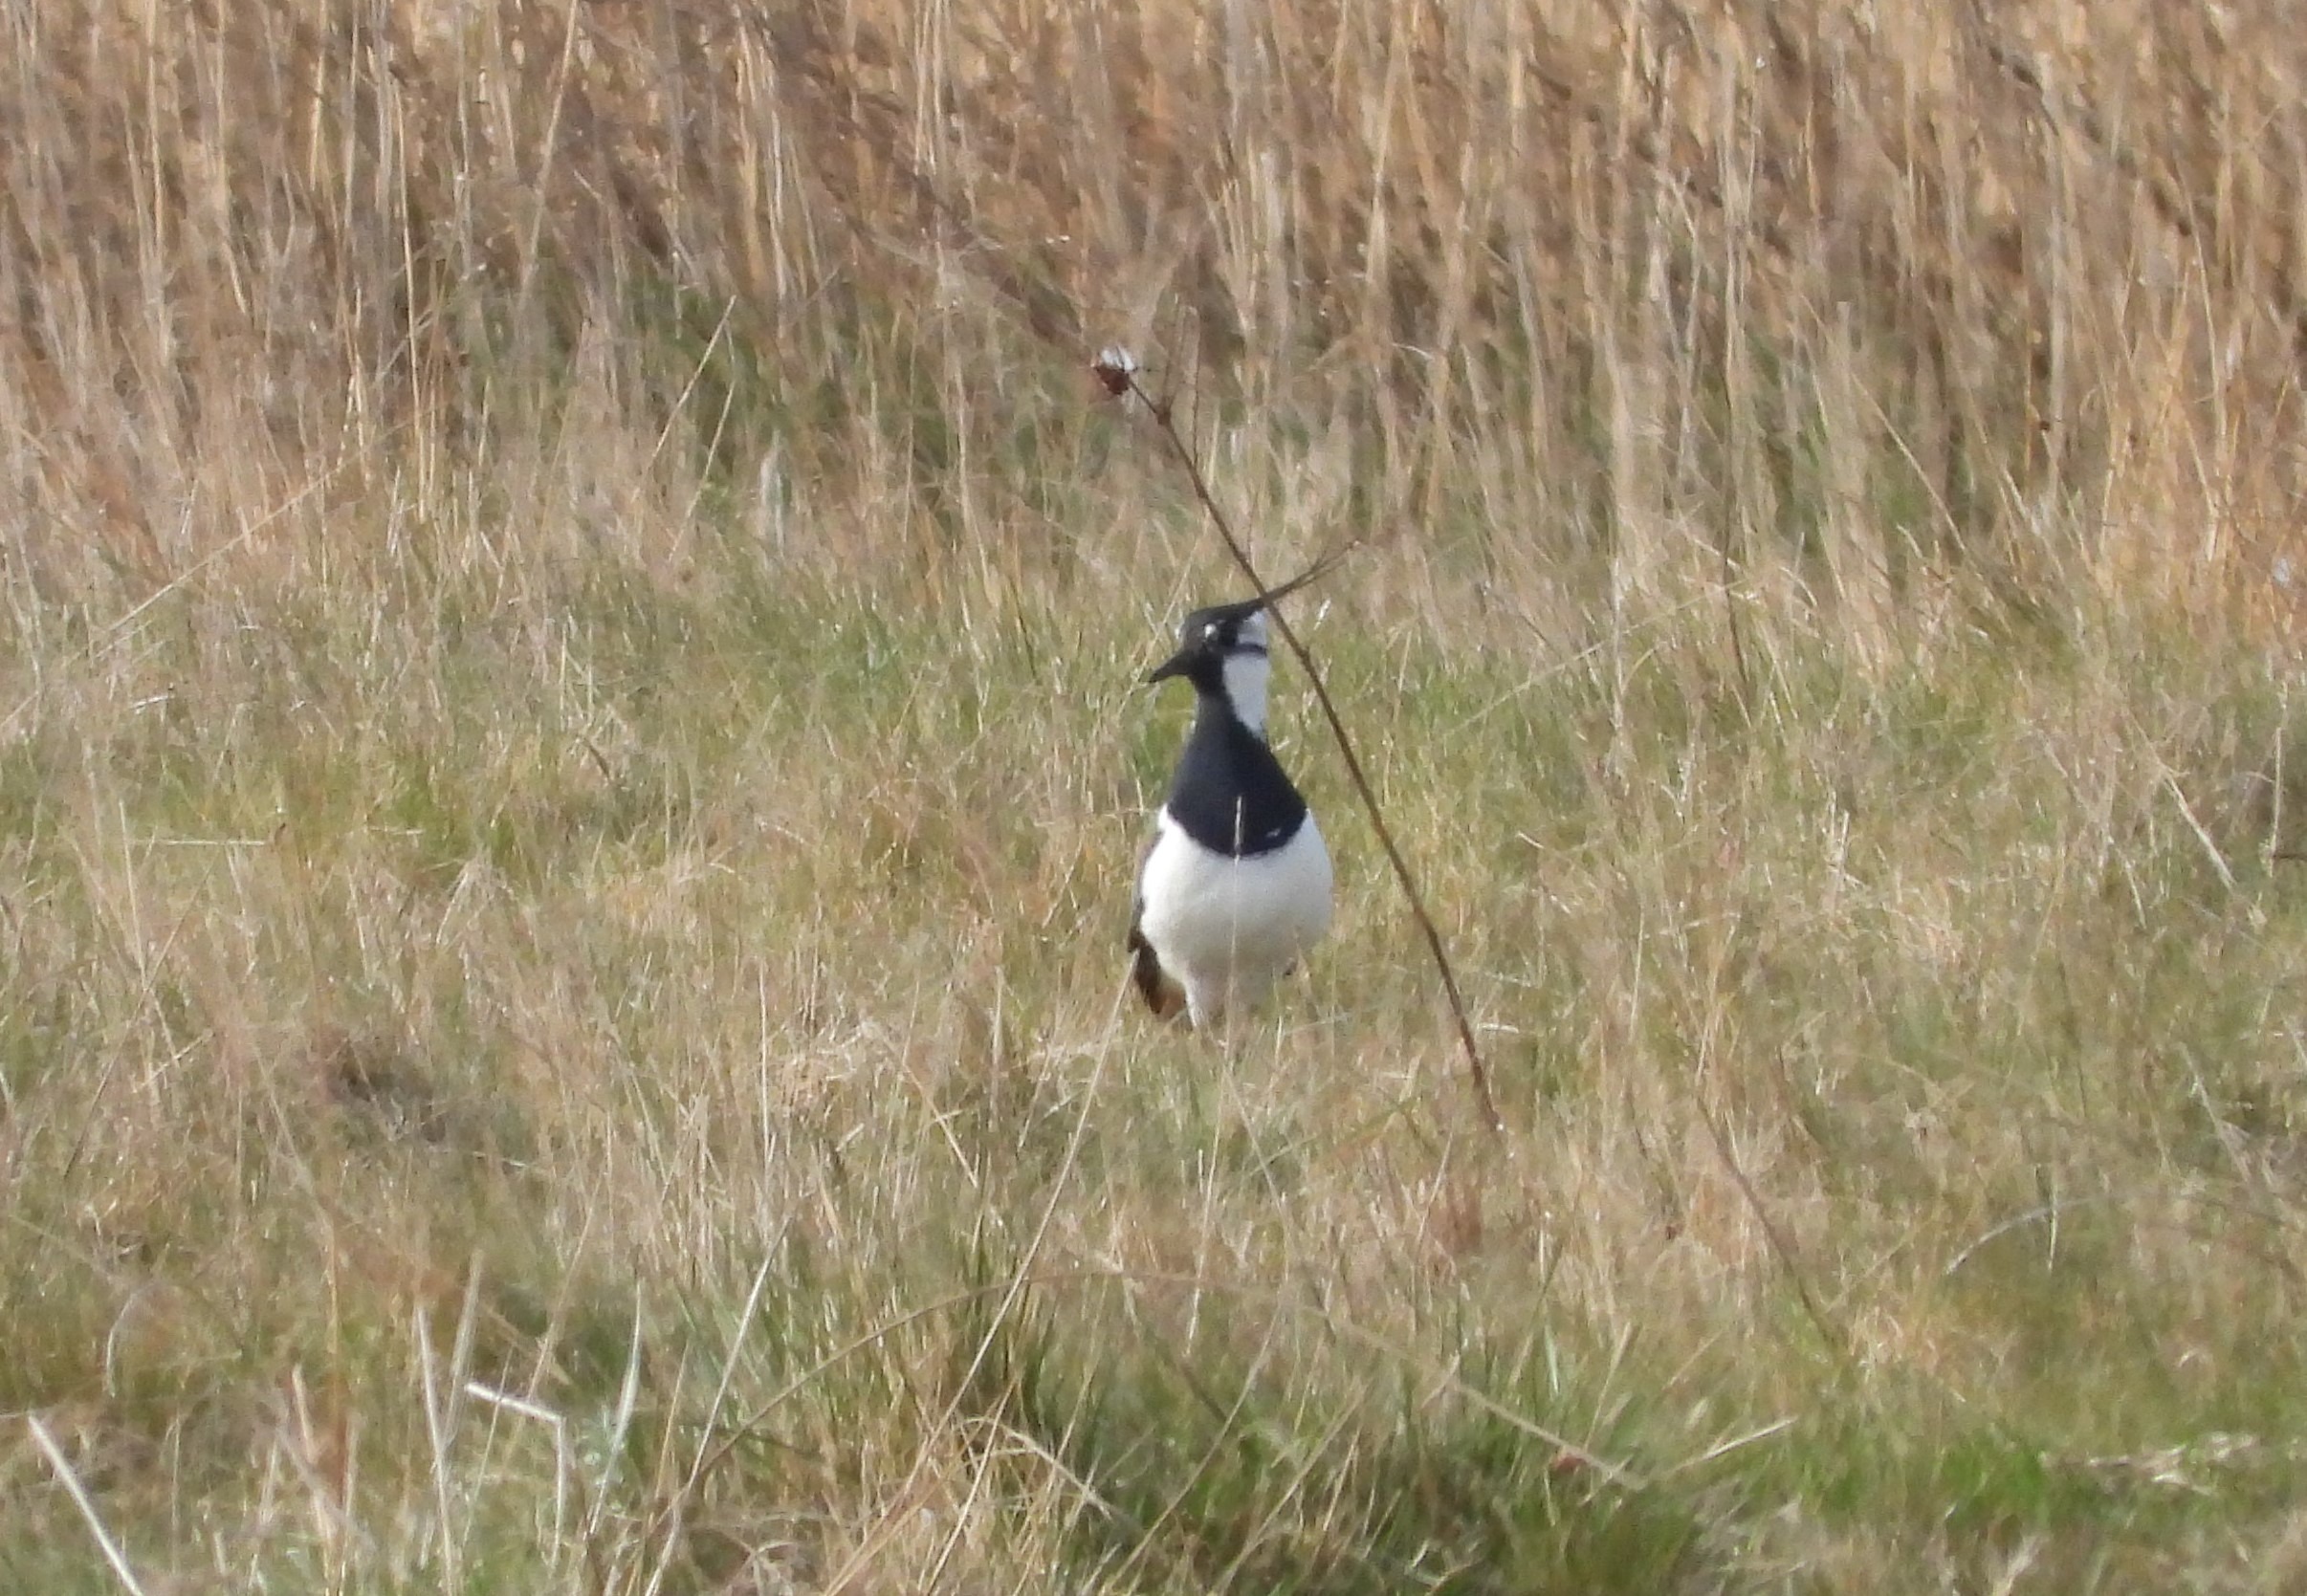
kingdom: Animalia
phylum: Chordata
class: Aves
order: Charadriiformes
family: Charadriidae
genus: Vanellus
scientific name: Vanellus vanellus
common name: Vibe
